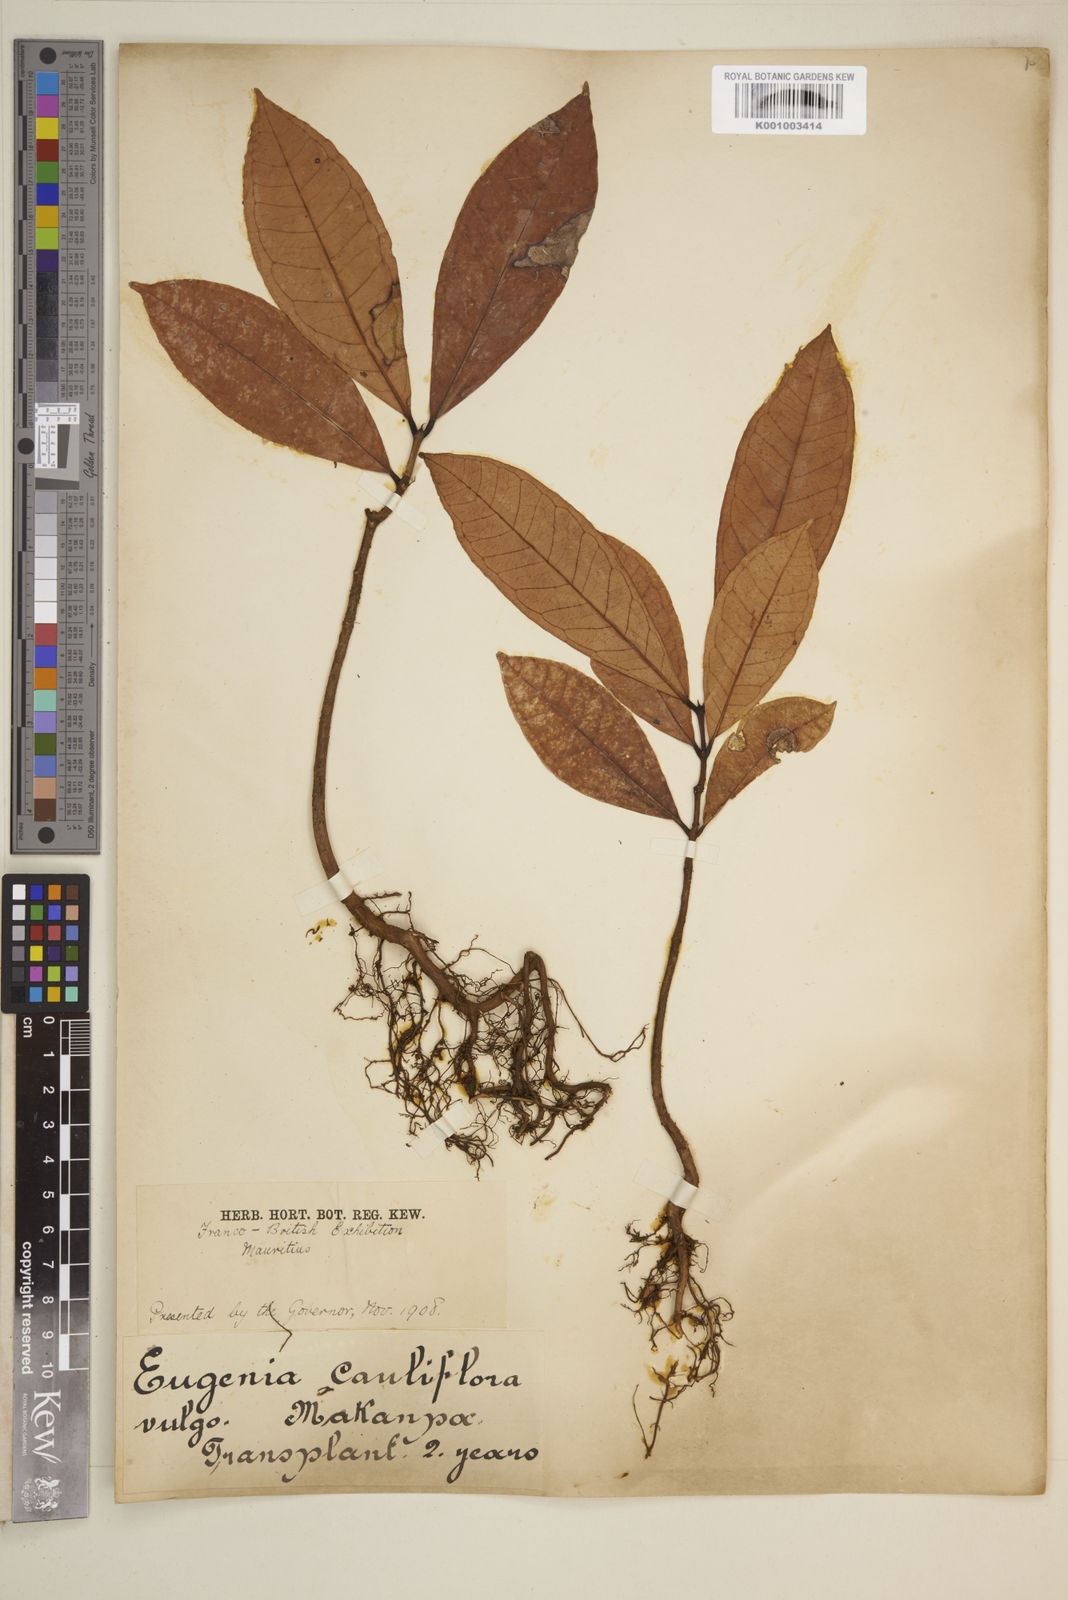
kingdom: Plantae
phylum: Tracheophyta
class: Magnoliopsida
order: Myrtales
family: Myrtaceae
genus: Eugenia
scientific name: Eugenia
